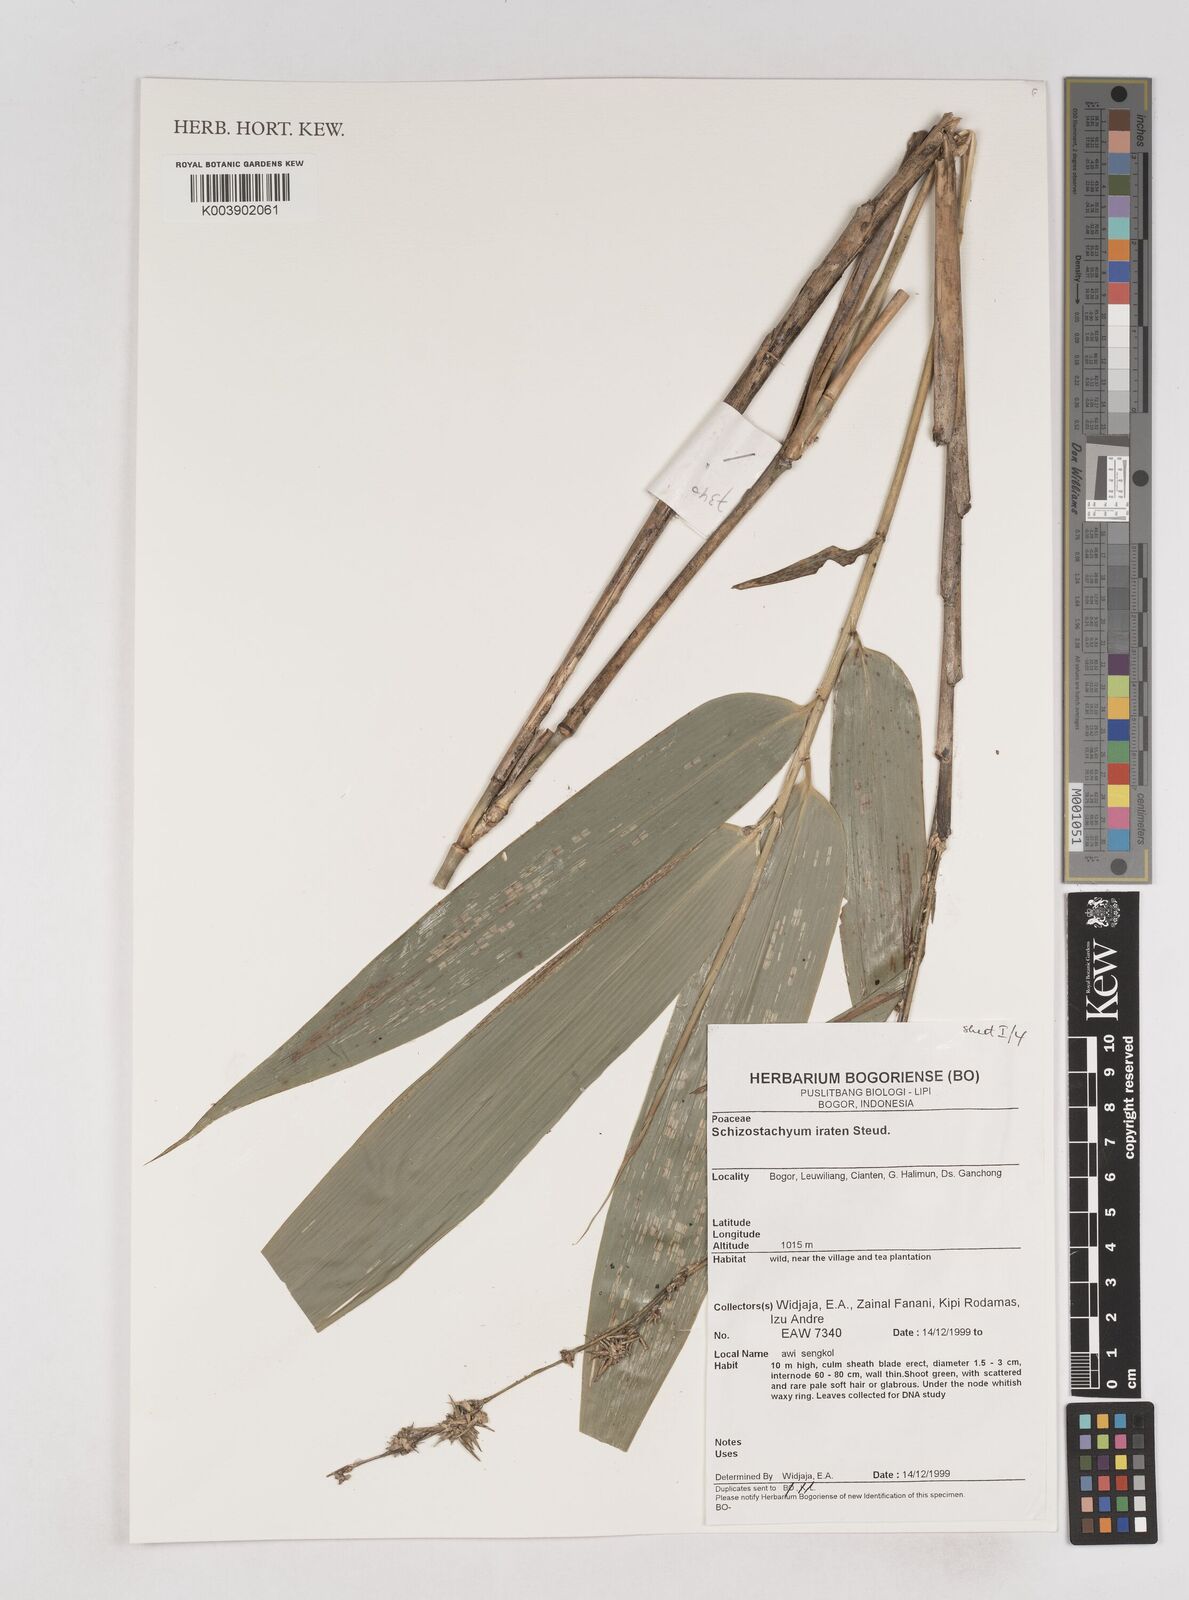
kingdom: Plantae
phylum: Tracheophyta
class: Liliopsida
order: Poales
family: Poaceae
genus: Schizostachyum
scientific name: Schizostachyum iraten
